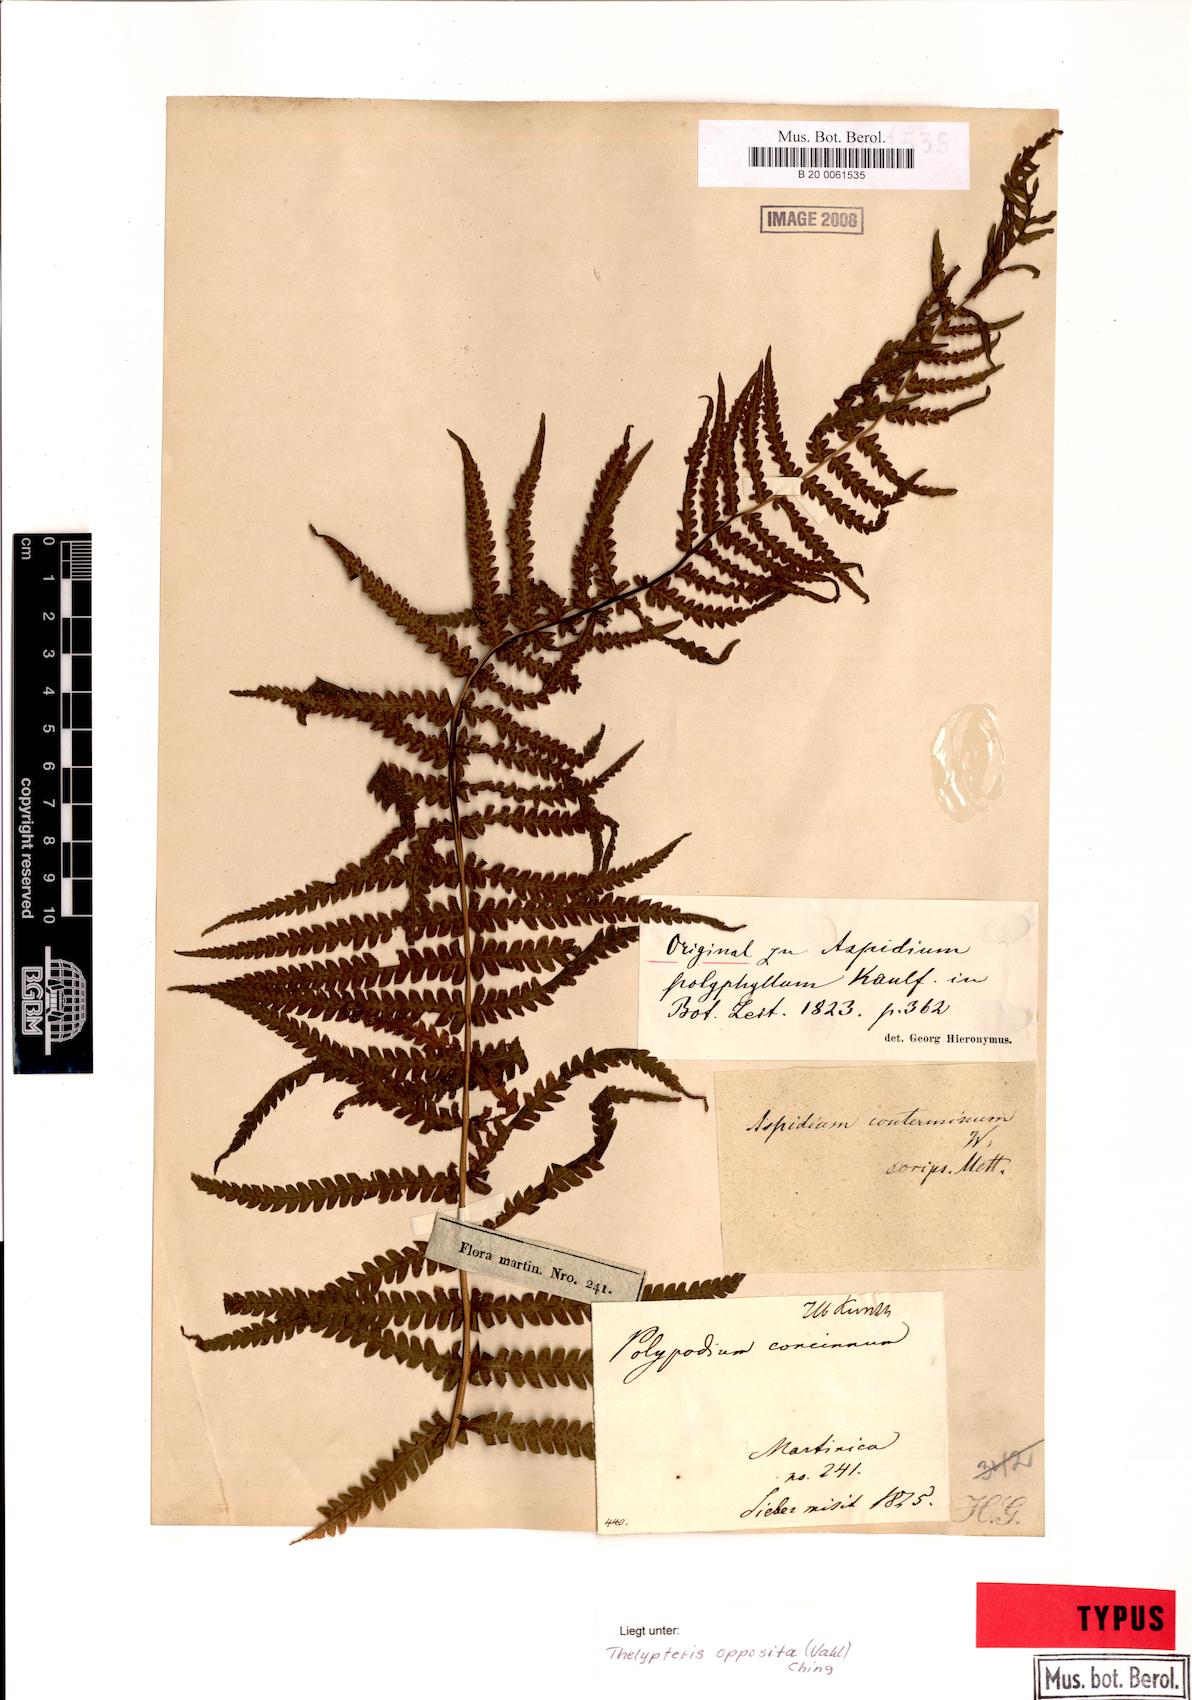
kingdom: Plantae
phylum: Tracheophyta
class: Polypodiopsida
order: Polypodiales
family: Thelypteridaceae
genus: Amauropelta
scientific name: Amauropelta opposita
